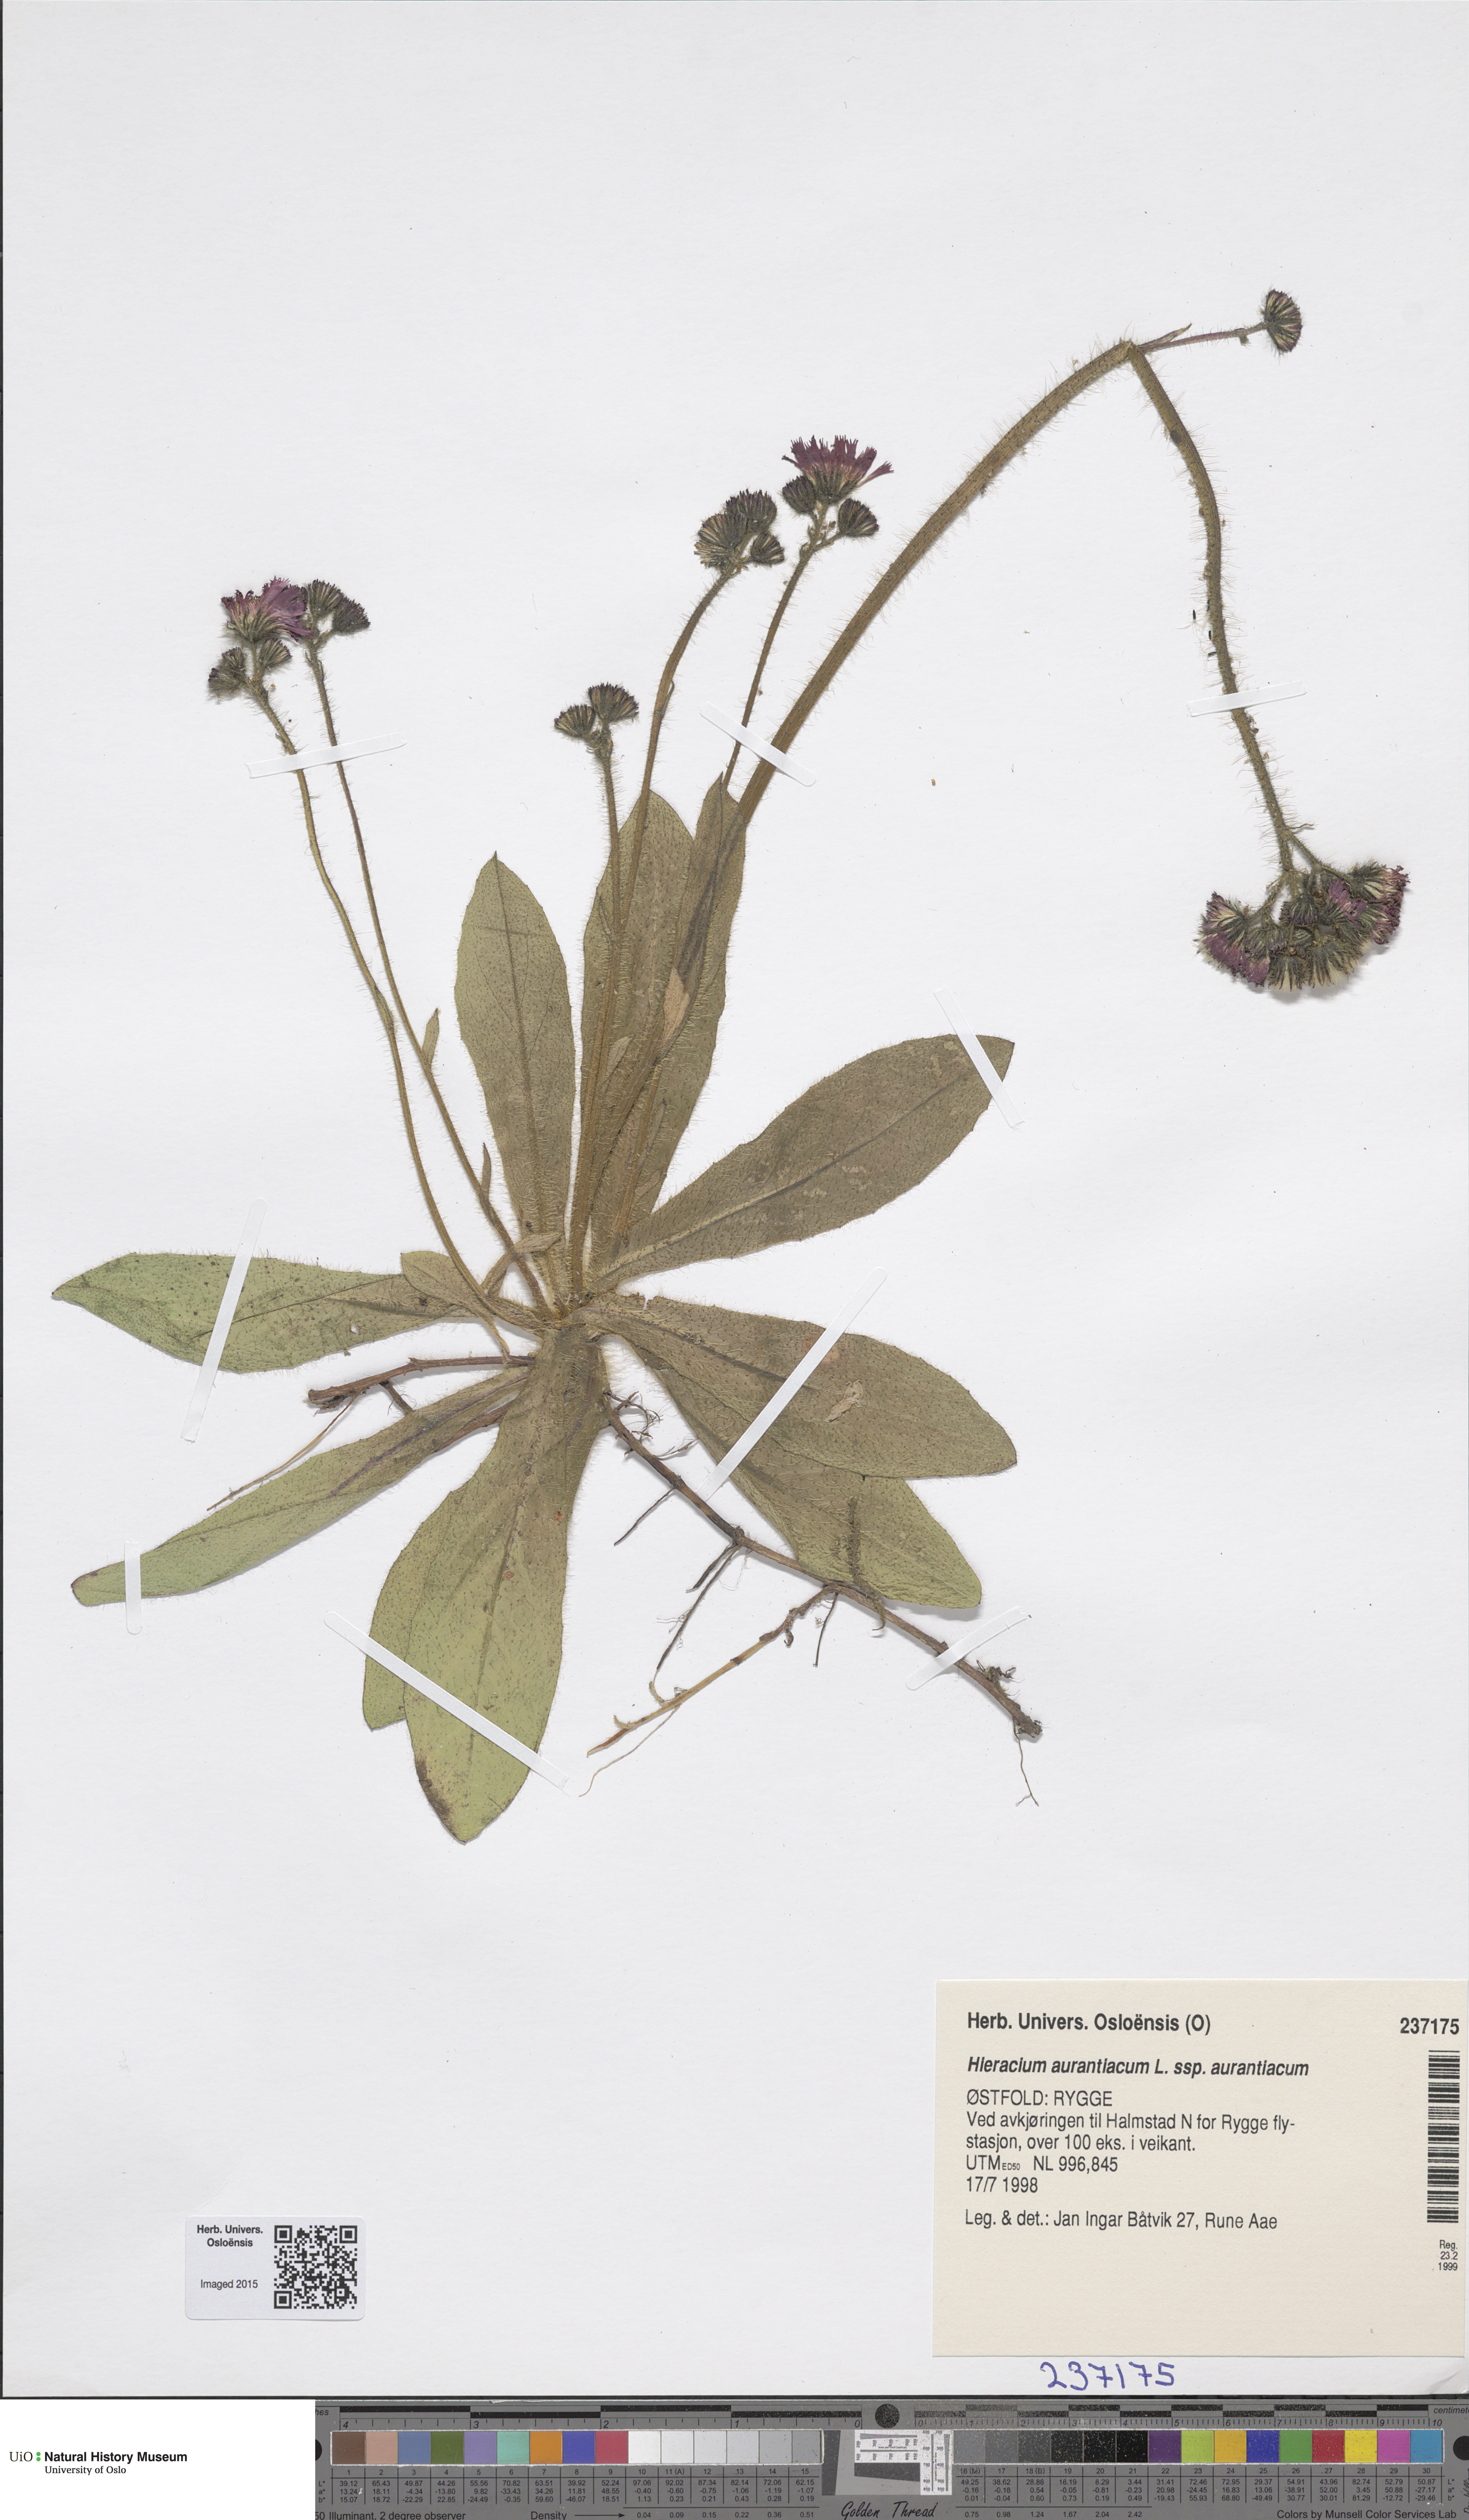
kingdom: Plantae
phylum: Tracheophyta
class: Magnoliopsida
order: Asterales
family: Asteraceae
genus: Pilosella
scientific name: Pilosella aurantiaca
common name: Fox-and-cubs
